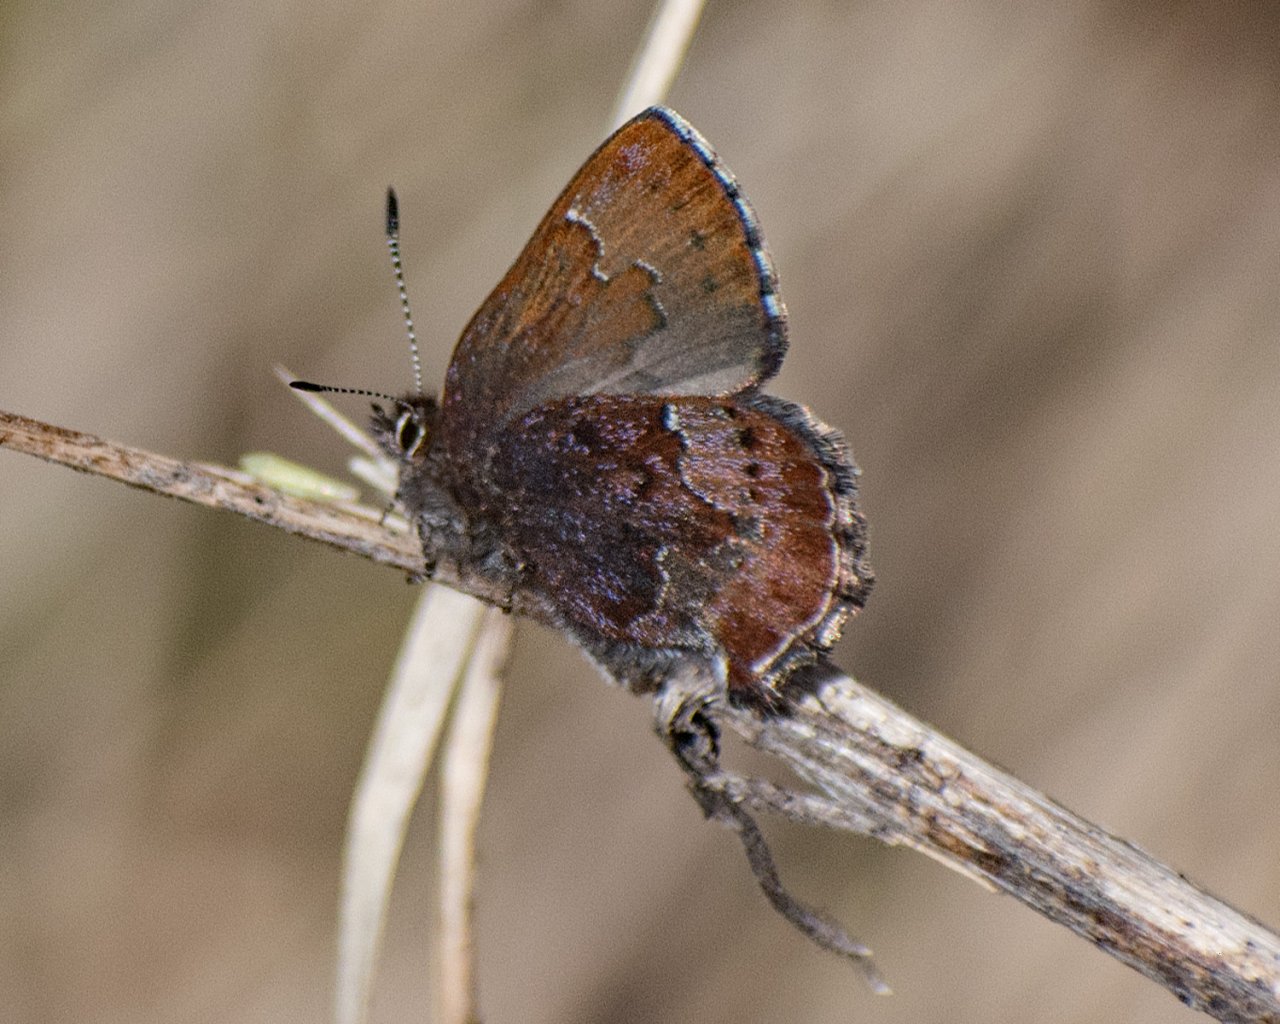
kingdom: Animalia
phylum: Arthropoda
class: Insecta
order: Lepidoptera
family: Lycaenidae
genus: Callophrys
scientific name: Callophrys mossii
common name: Moss' Elfin
